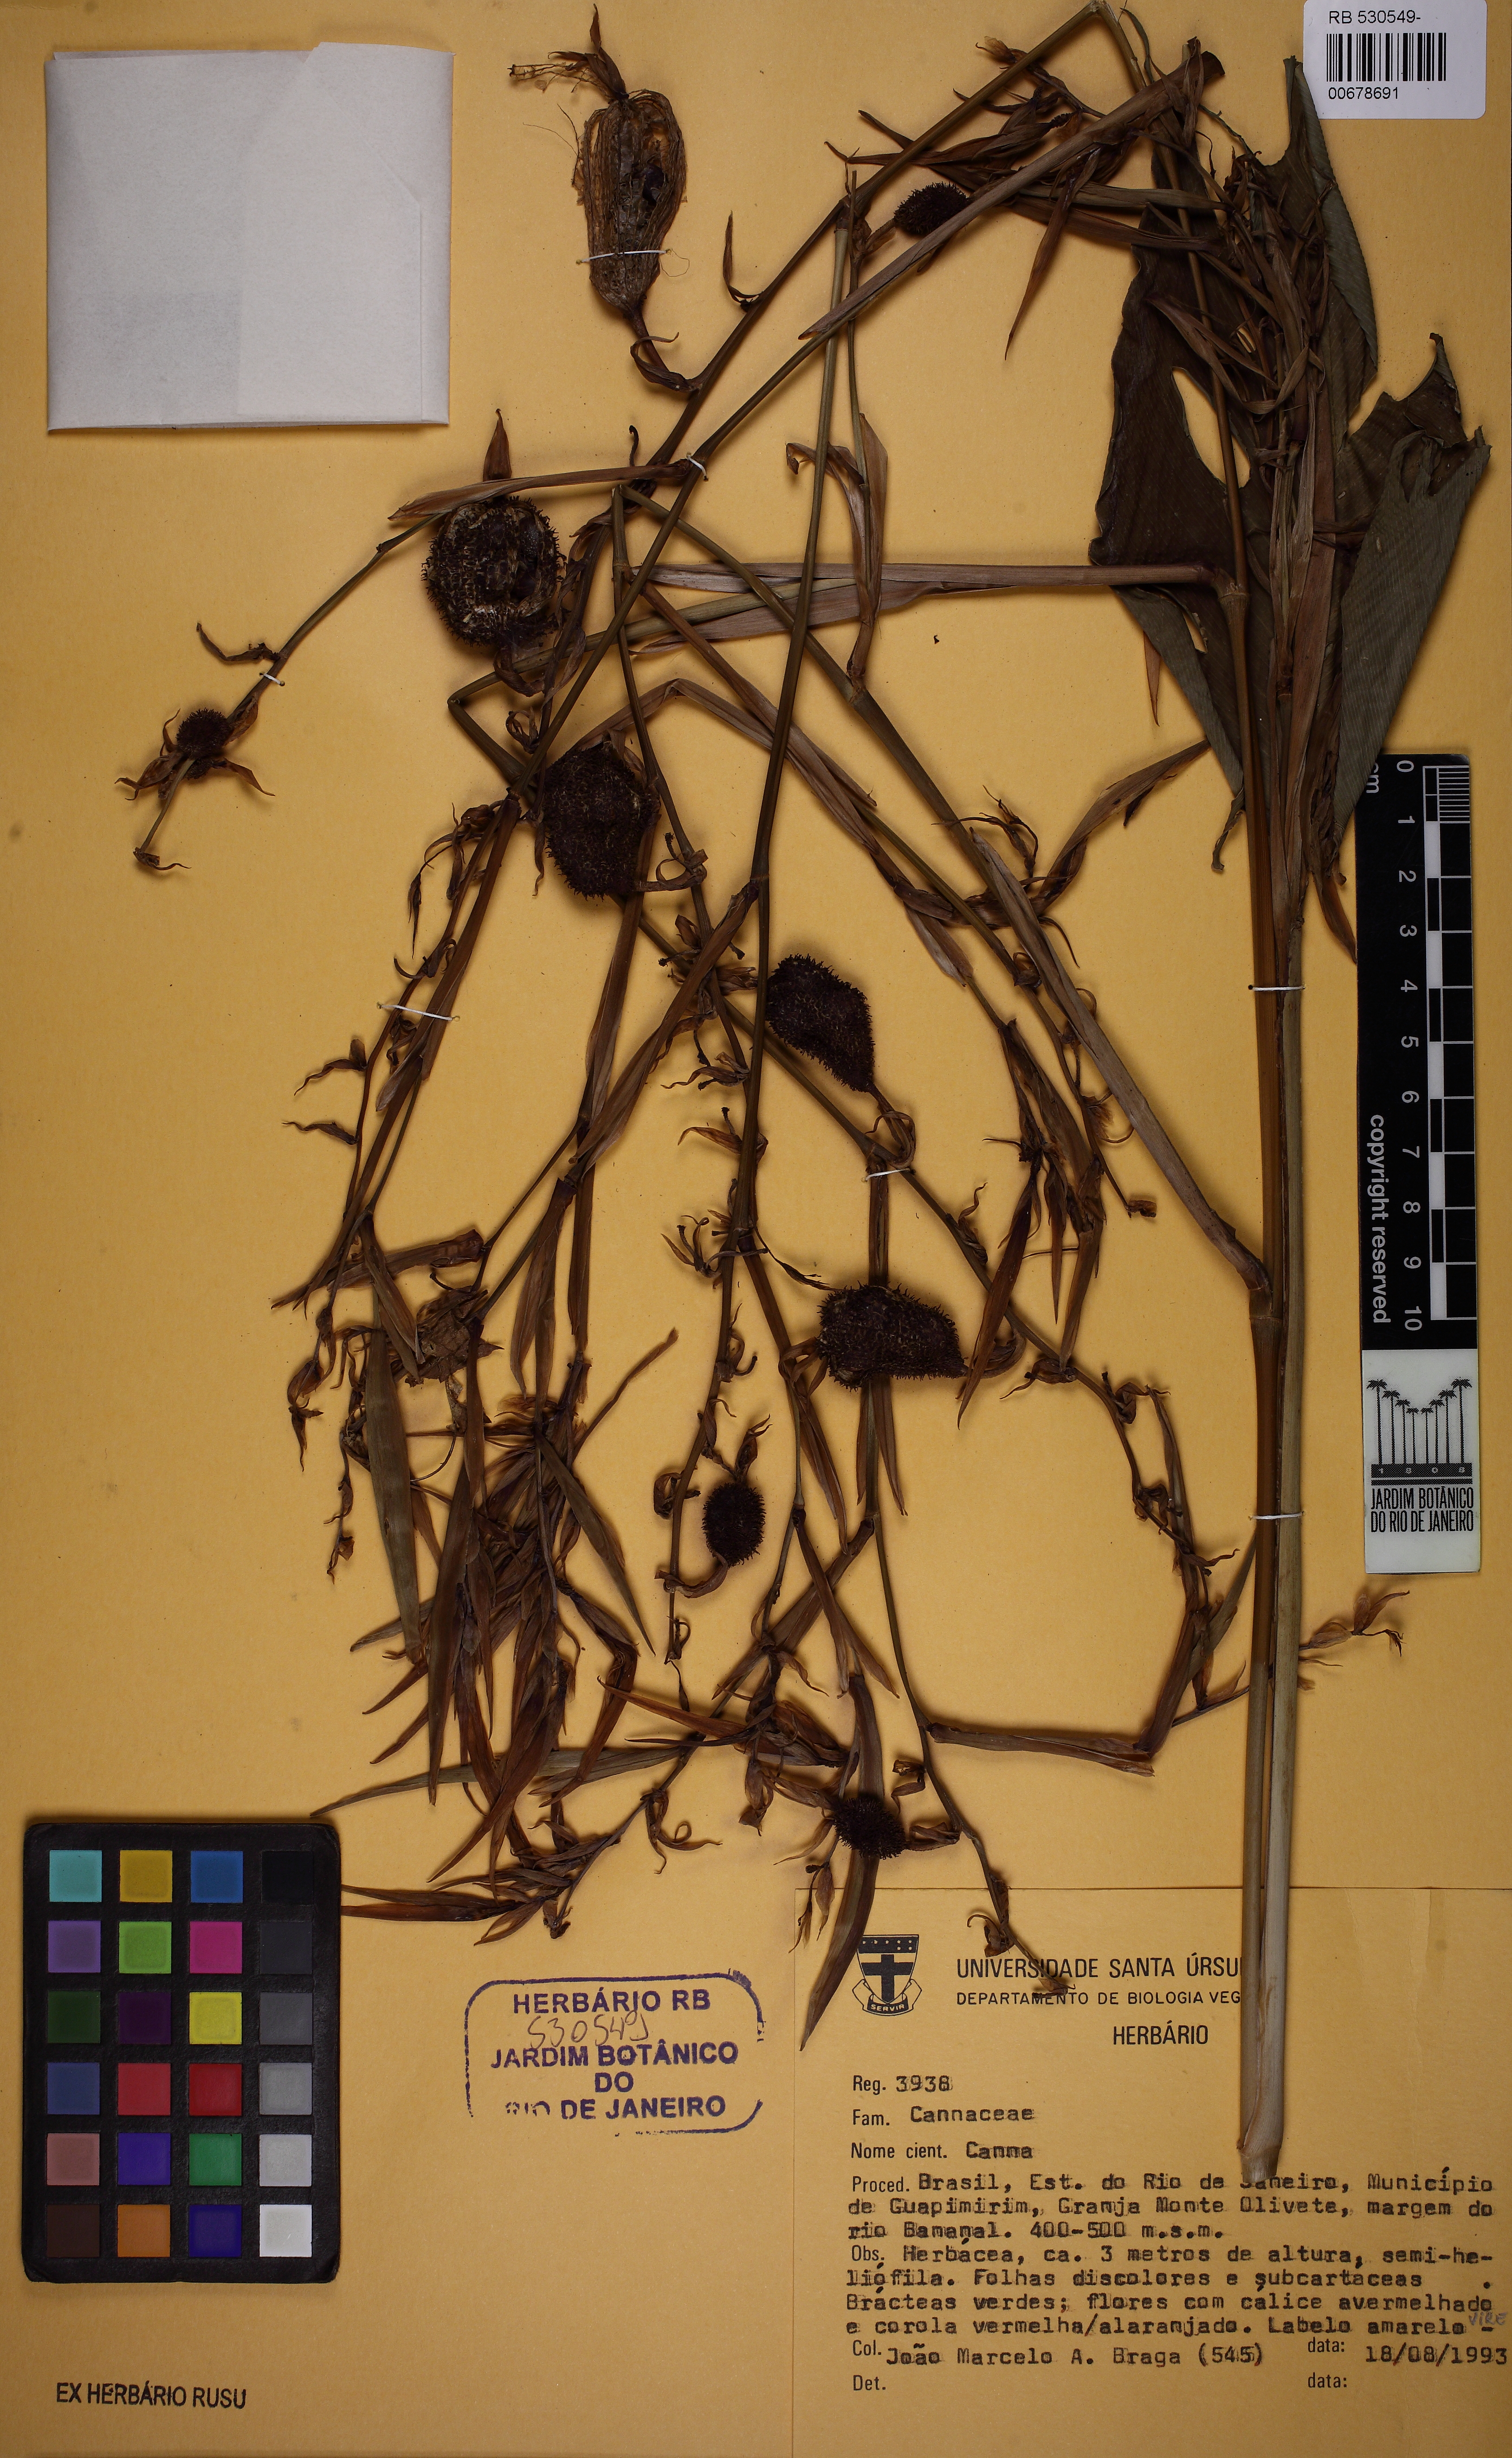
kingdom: Plantae
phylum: Tracheophyta
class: Liliopsida
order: Zingiberales
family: Cannaceae
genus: Canna
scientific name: Canna
